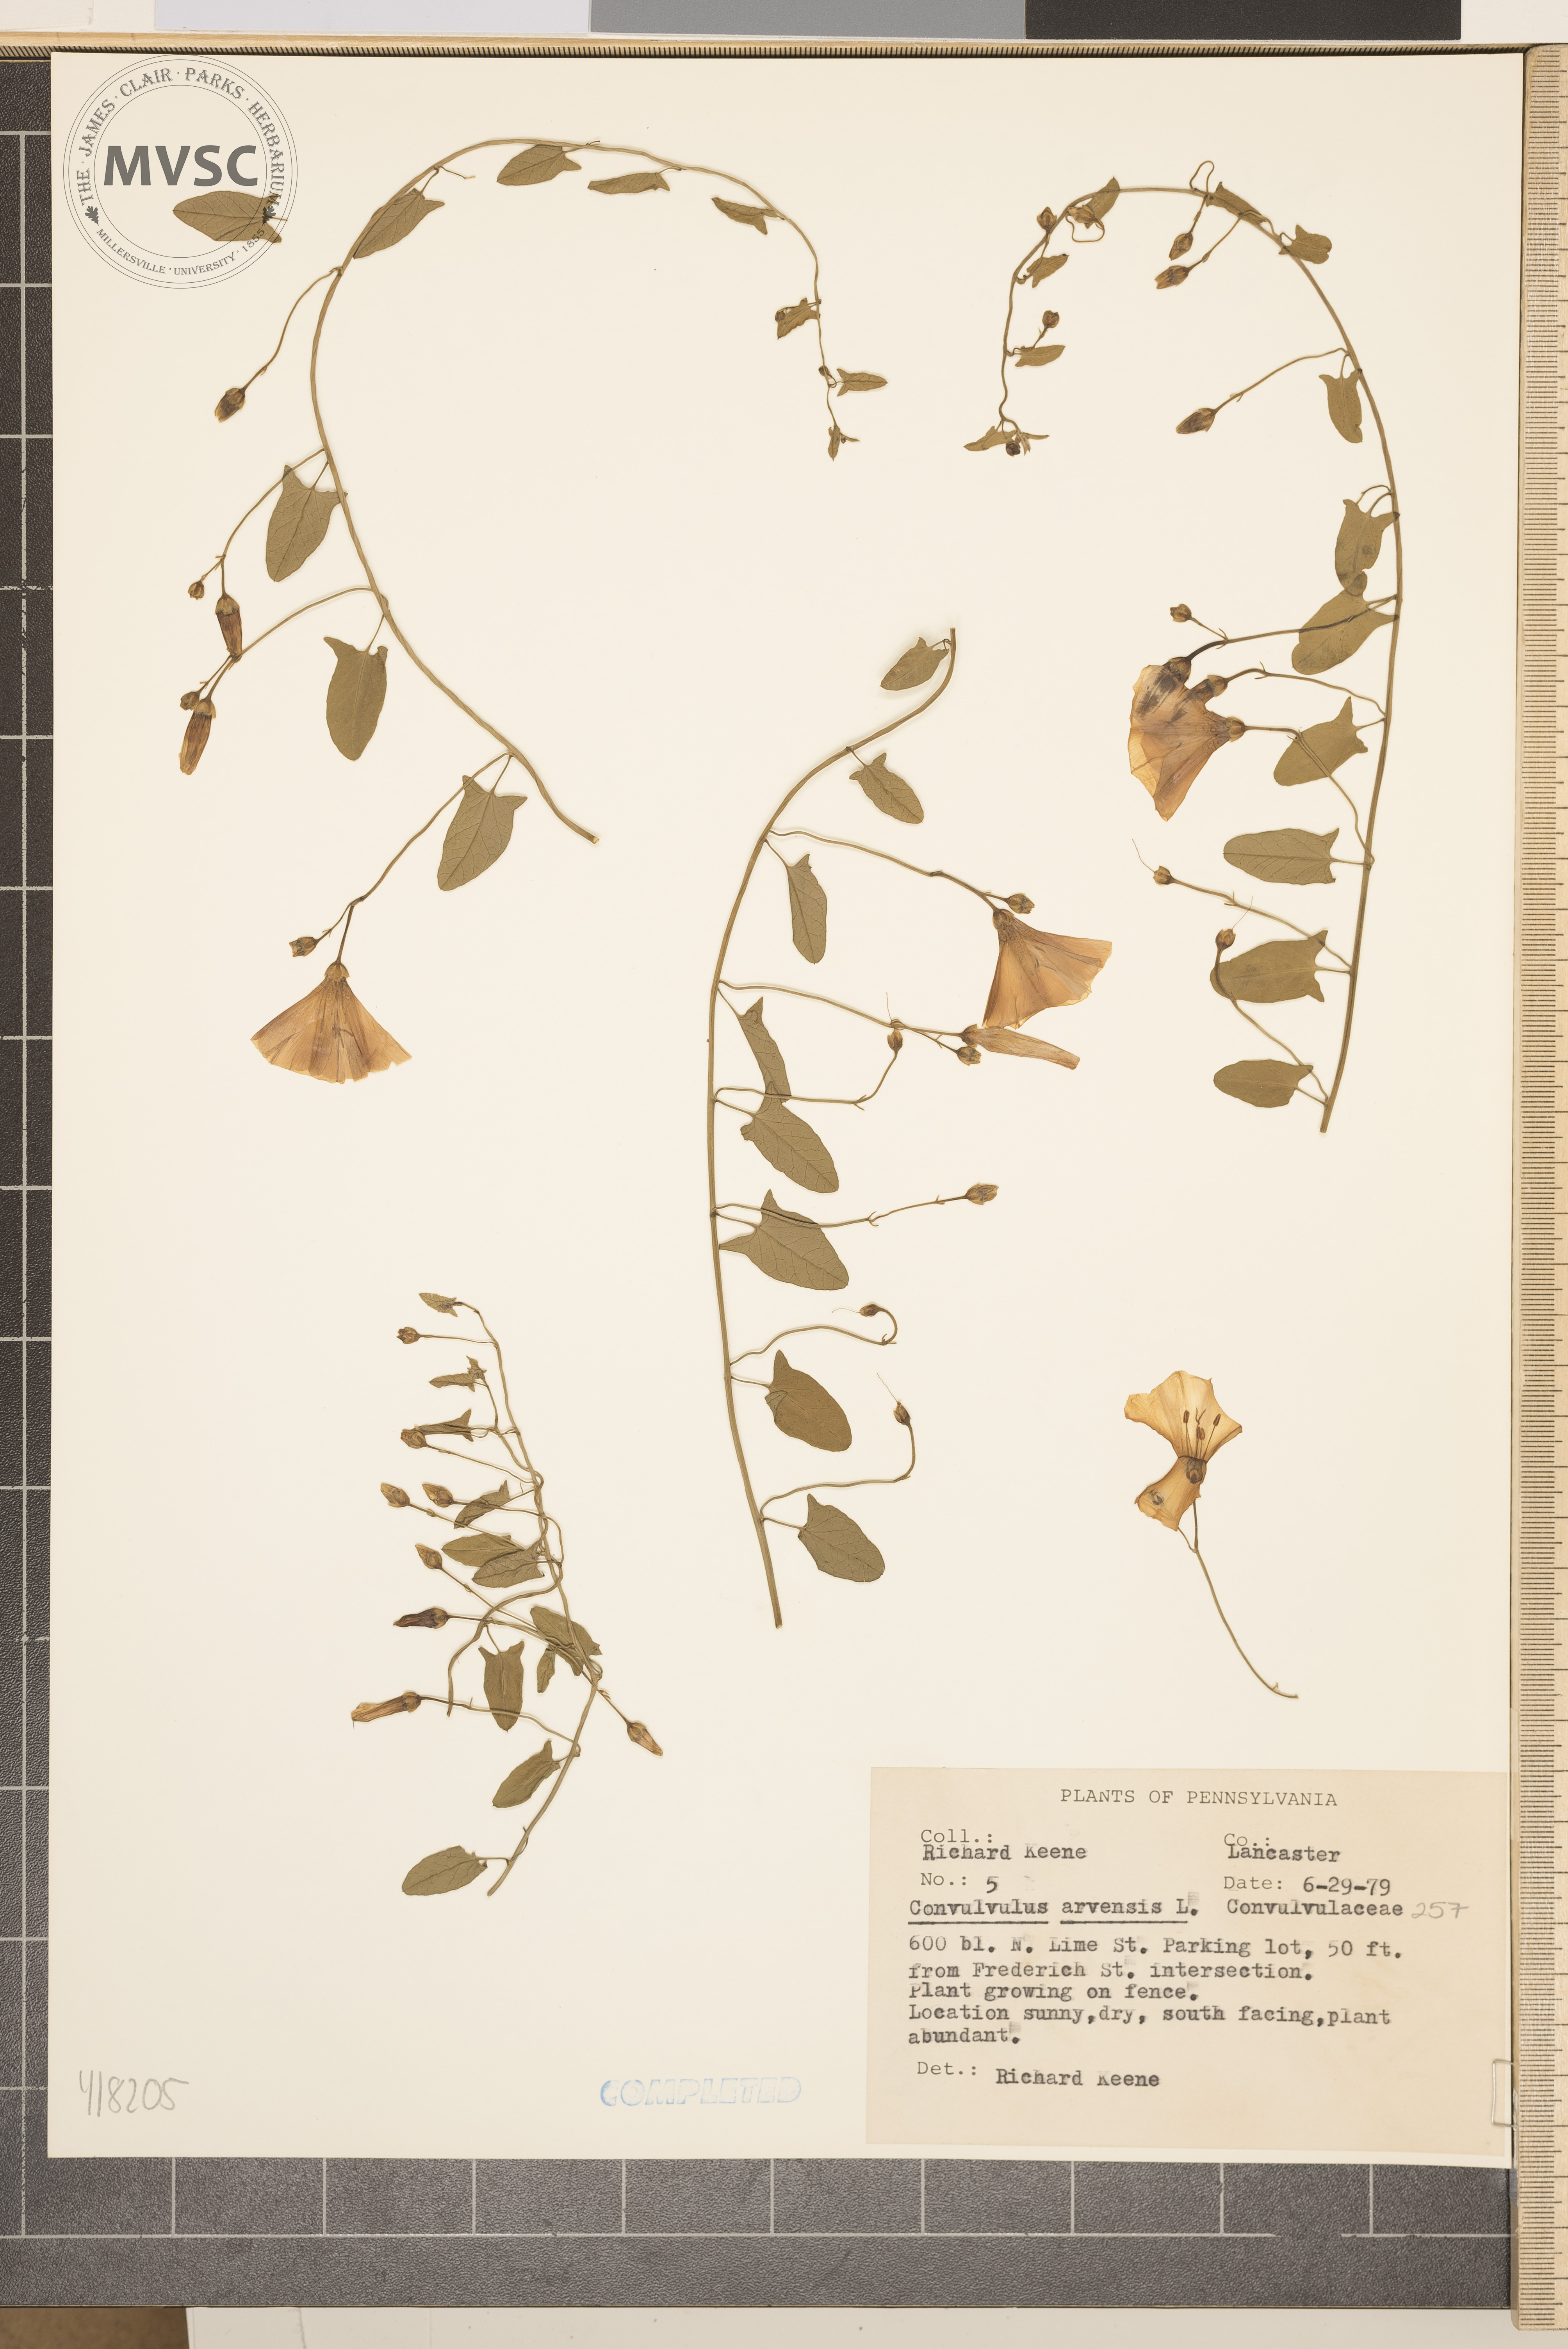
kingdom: Plantae
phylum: Tracheophyta
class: Magnoliopsida
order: Solanales
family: Convolvulaceae
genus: Convolvulus
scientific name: Convolvulus arvensis
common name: field bindweed
